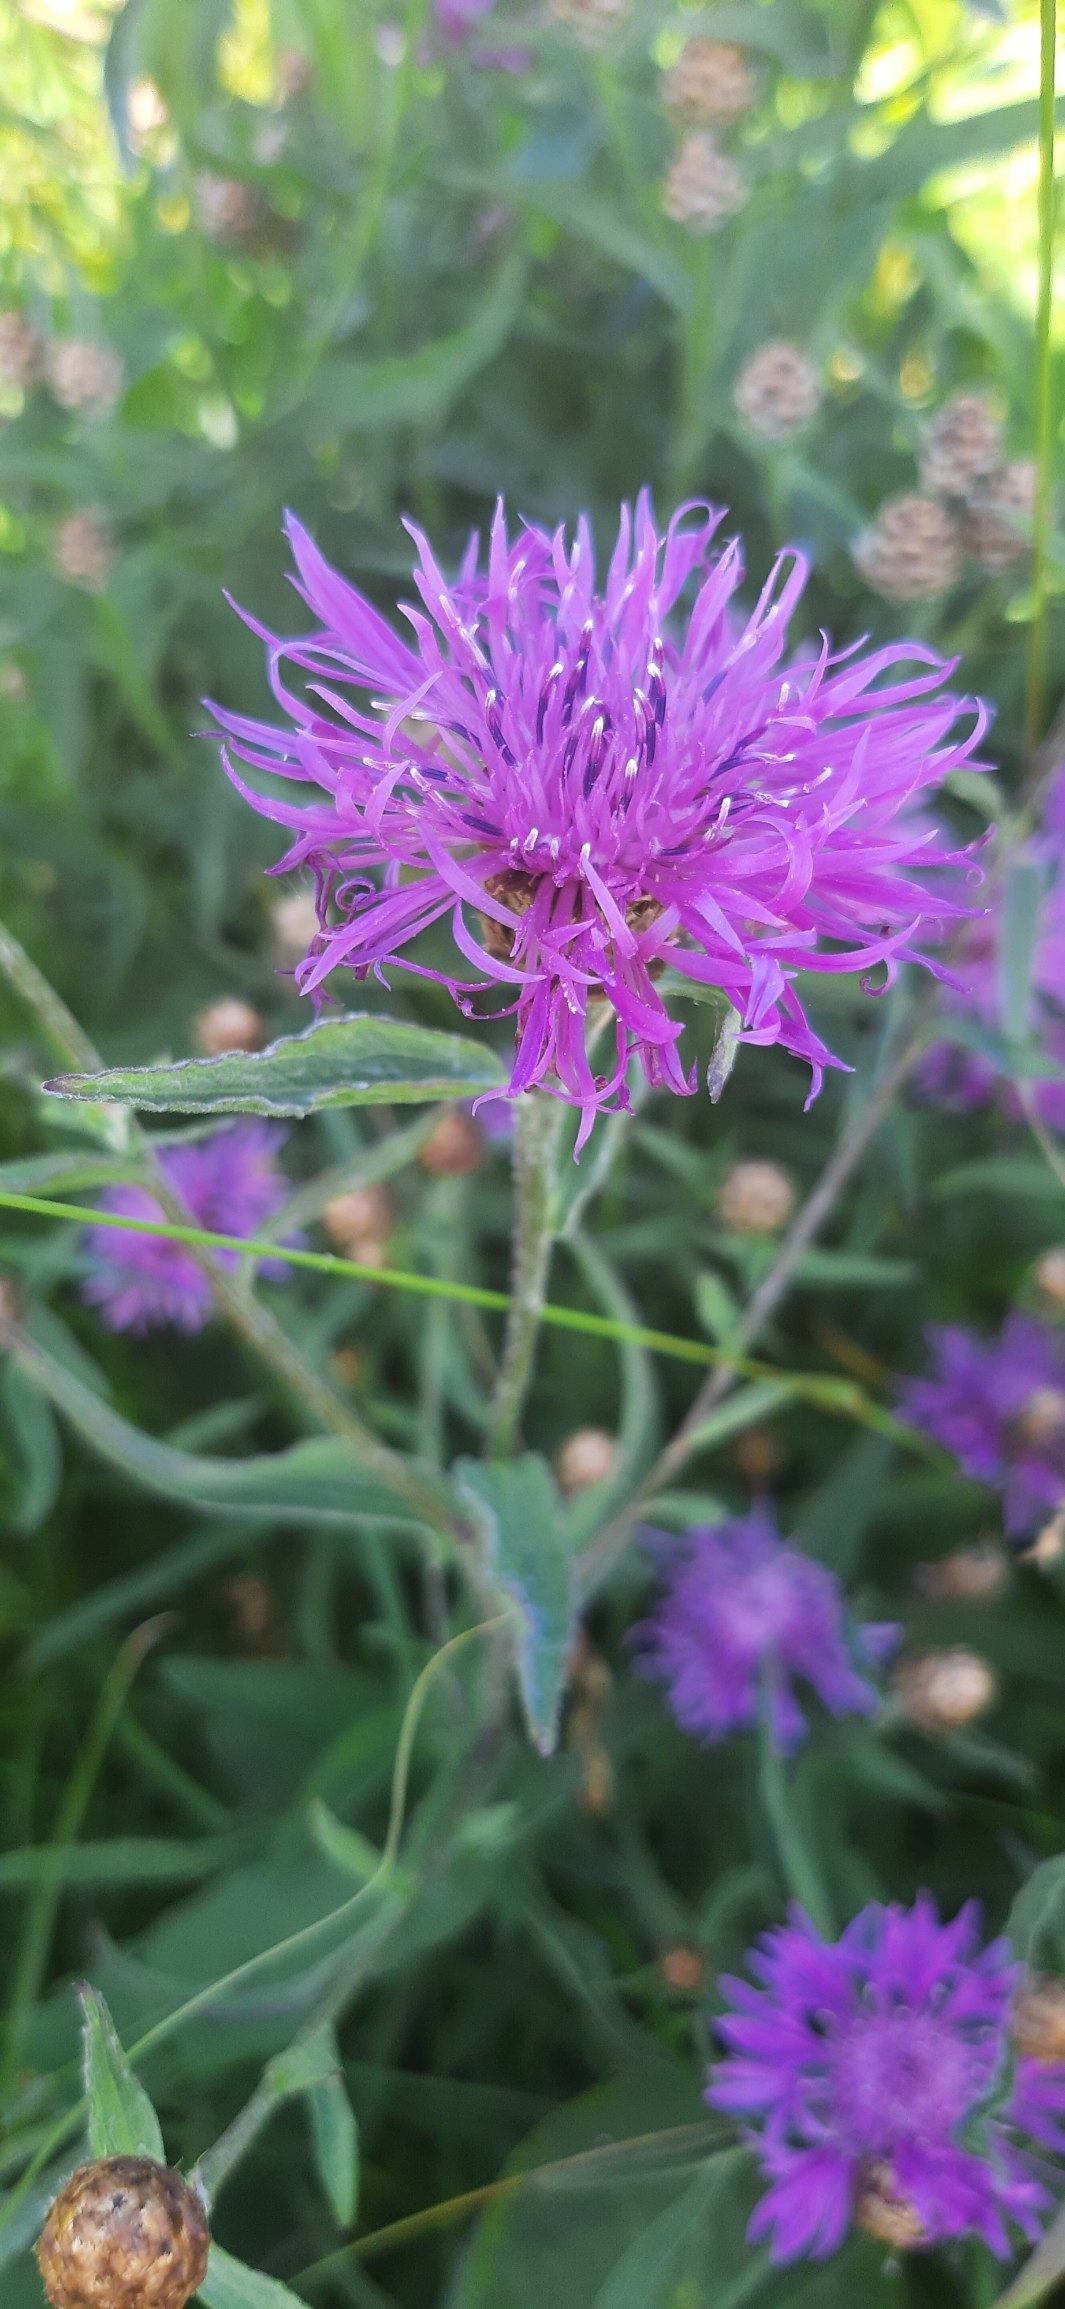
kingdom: Plantae
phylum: Tracheophyta
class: Magnoliopsida
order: Asterales
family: Asteraceae
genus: Centaurea
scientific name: Centaurea jacea
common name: Almindelig knopurt
